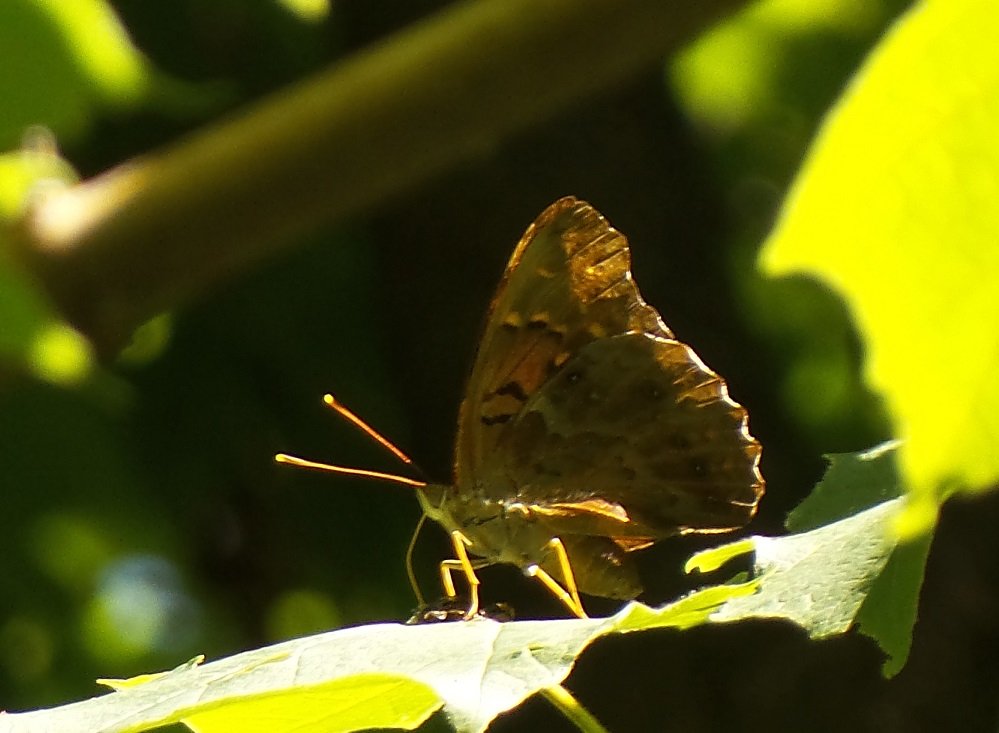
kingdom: Animalia
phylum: Arthropoda
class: Insecta
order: Lepidoptera
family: Nymphalidae
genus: Asterocampa
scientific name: Asterocampa clyton
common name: Tawny Emperor
